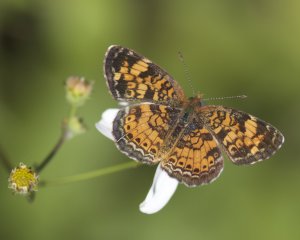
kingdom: Animalia
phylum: Arthropoda
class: Insecta
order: Lepidoptera
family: Nymphalidae
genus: Phyciodes
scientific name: Phyciodes tharos
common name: Pearl Crescent
